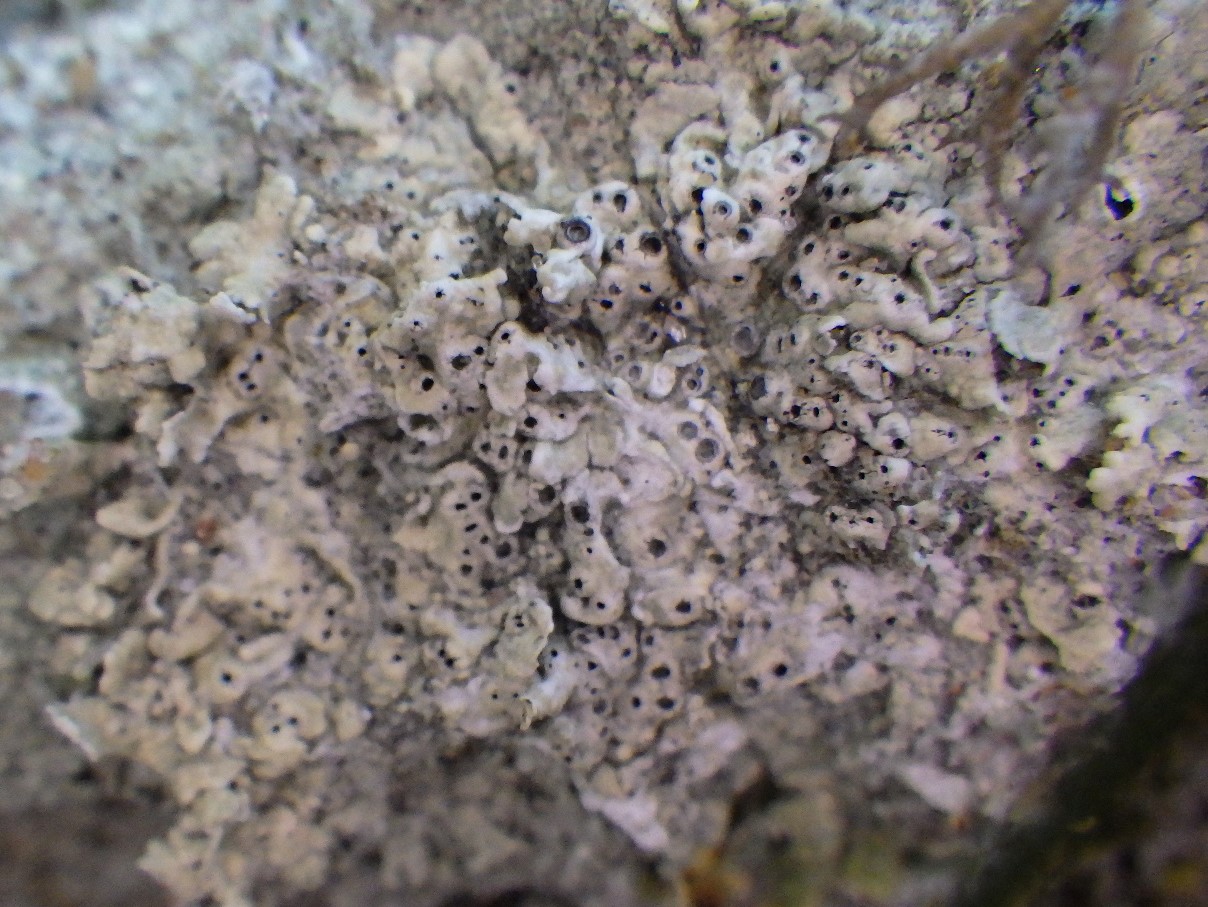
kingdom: Fungi
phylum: Ascomycota
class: Lecanoromycetes
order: Ostropales
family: Graphidaceae
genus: Diploschistes
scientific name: Diploschistes muscorum
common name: mos-kraterlav
